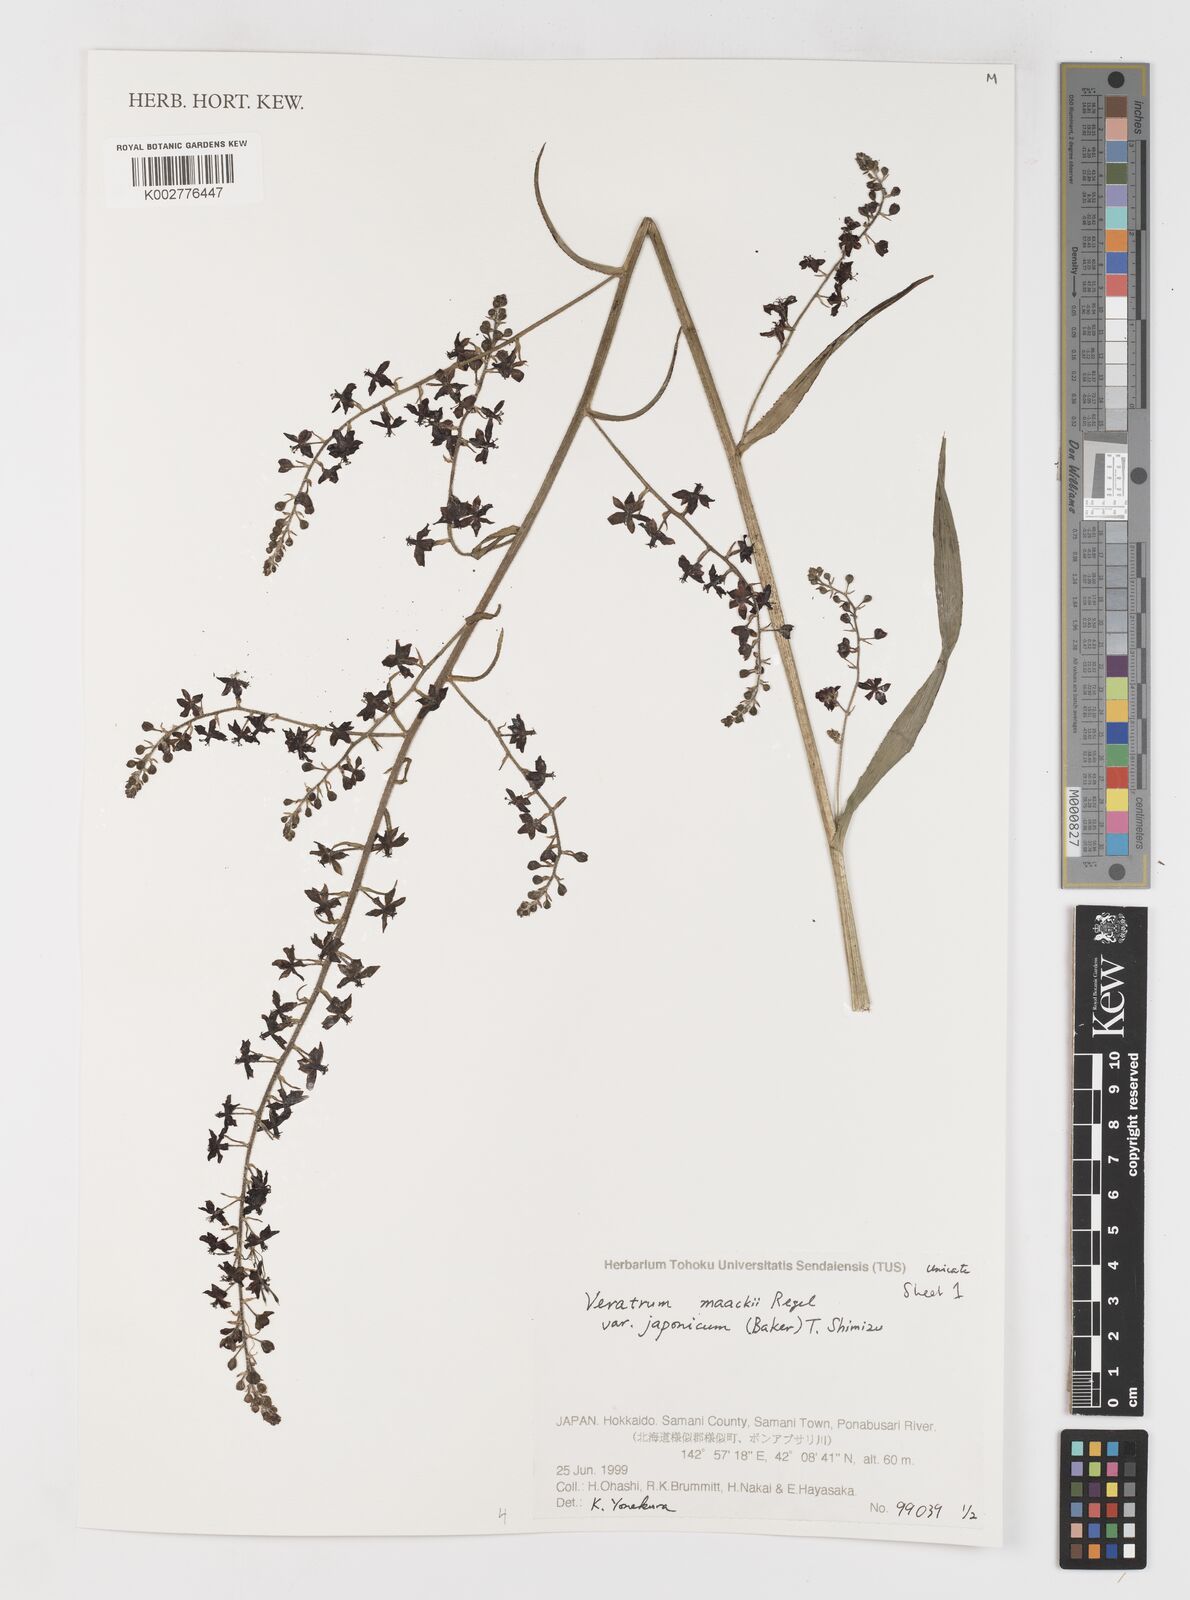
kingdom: Plantae
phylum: Tracheophyta
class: Liliopsida
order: Liliales
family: Melanthiaceae
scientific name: Melanthiaceae
